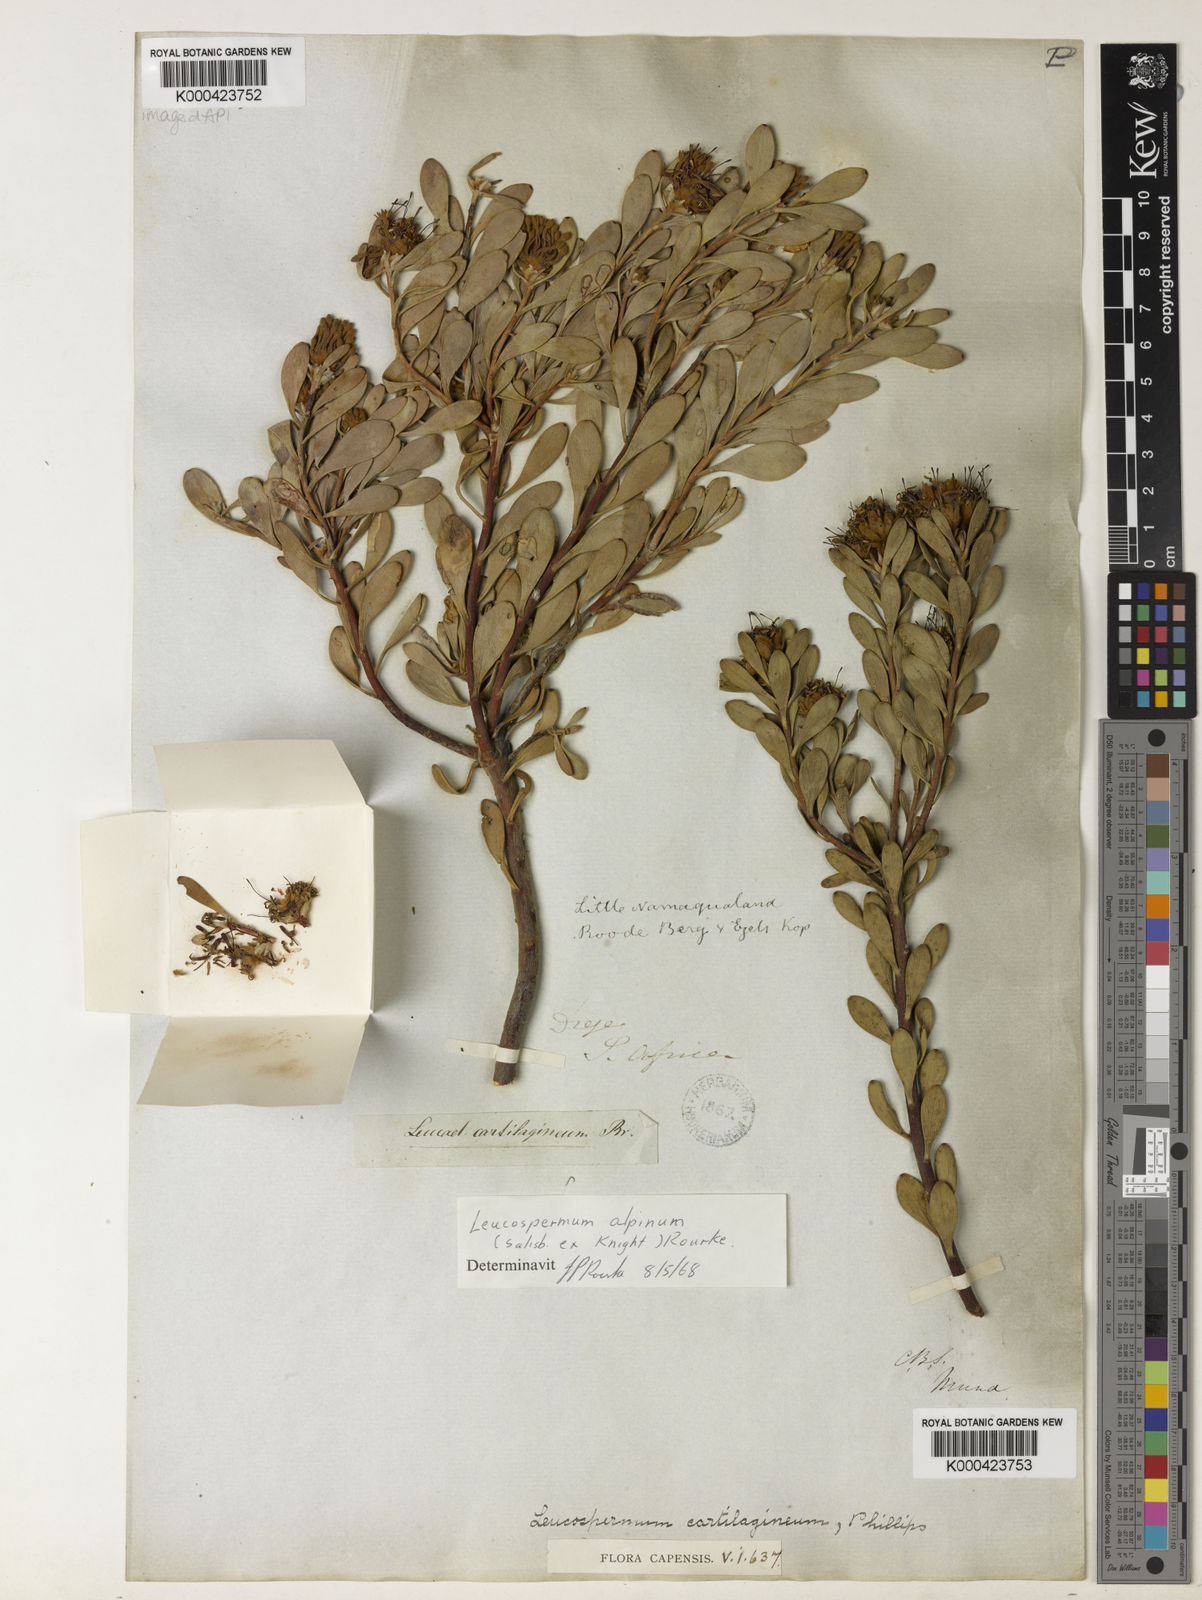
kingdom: Plantae
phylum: Tracheophyta
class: Magnoliopsida
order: Proteales
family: Proteaceae
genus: Vexatorella
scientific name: Vexatorella alpina
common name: Kamiesberg vexator
